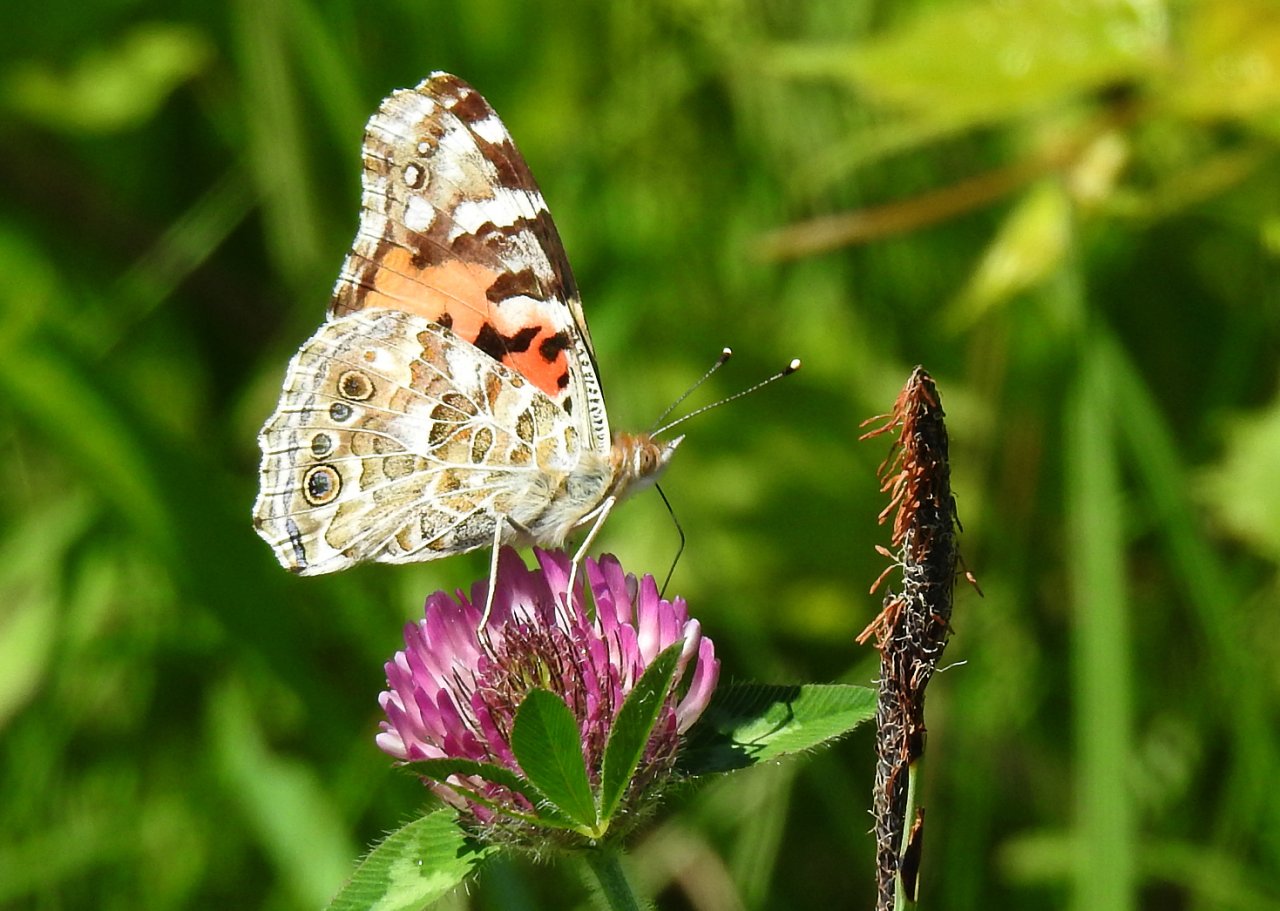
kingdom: Animalia
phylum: Arthropoda
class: Insecta
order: Lepidoptera
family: Nymphalidae
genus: Vanessa
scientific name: Vanessa cardui
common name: Painted Lady
